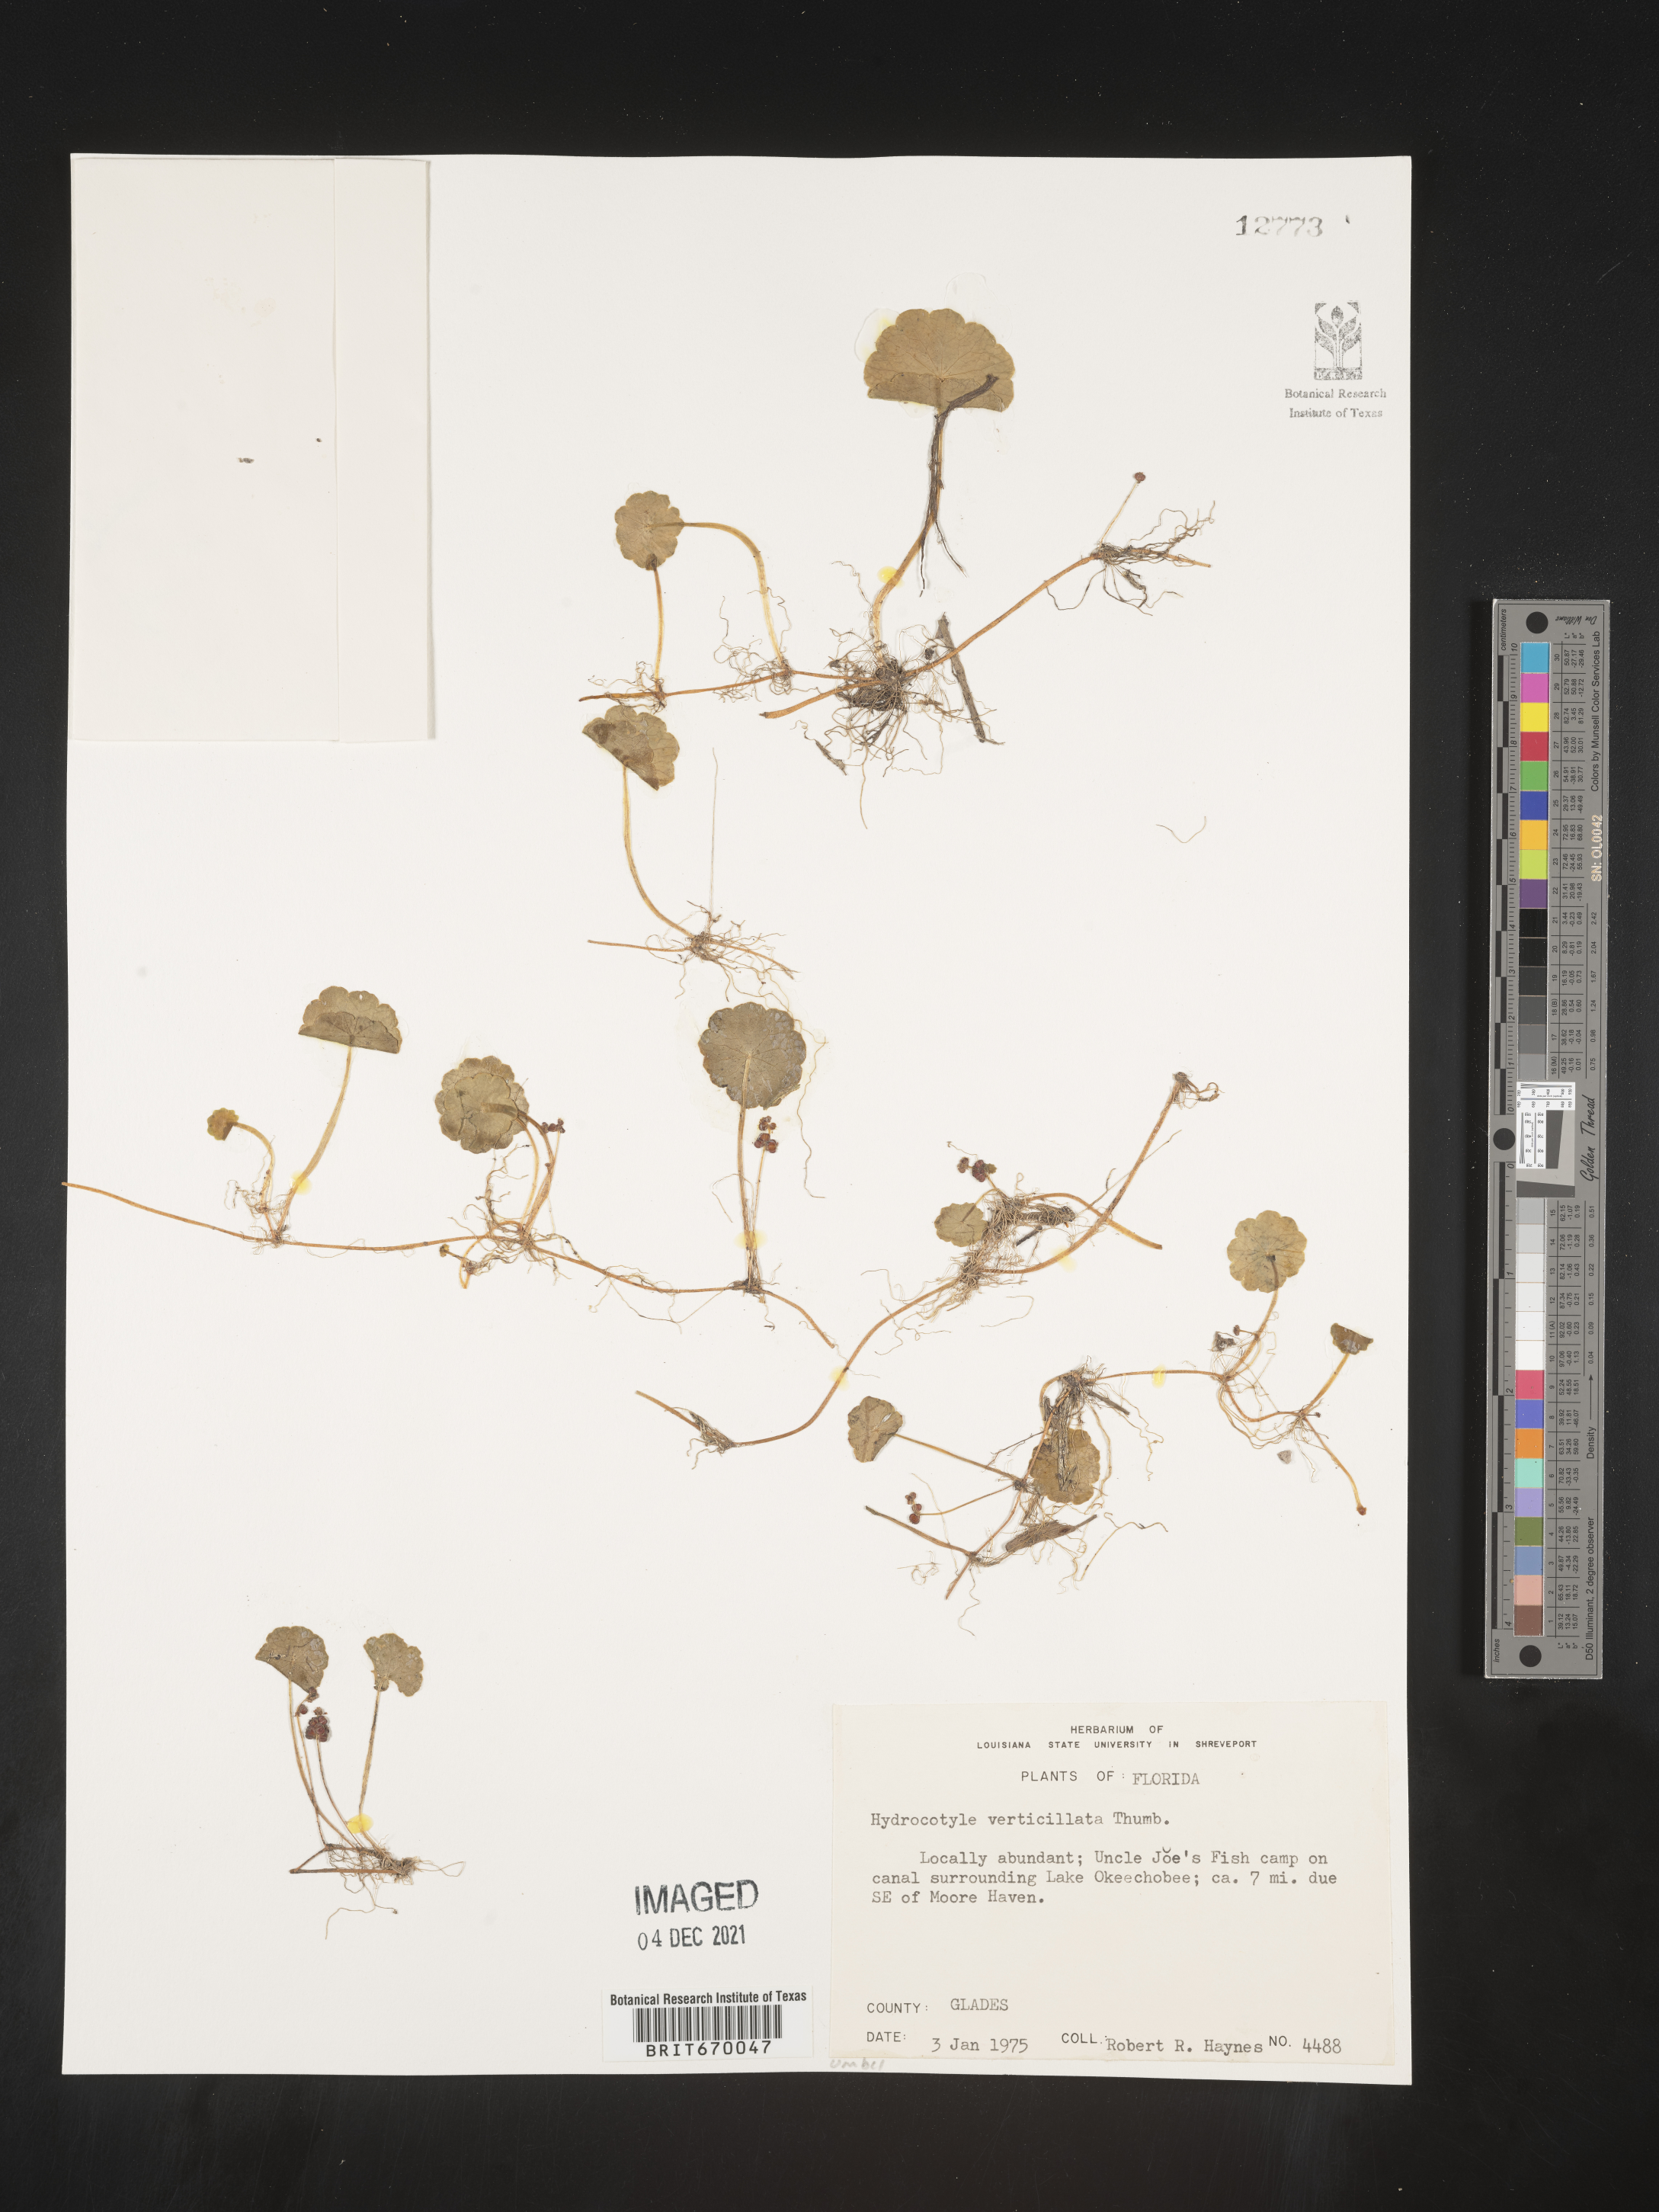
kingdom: Plantae
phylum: Tracheophyta
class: Magnoliopsida
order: Apiales
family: Araliaceae
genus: Hydrocotyle
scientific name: Hydrocotyle verticillata
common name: Whorled marshpennywort
